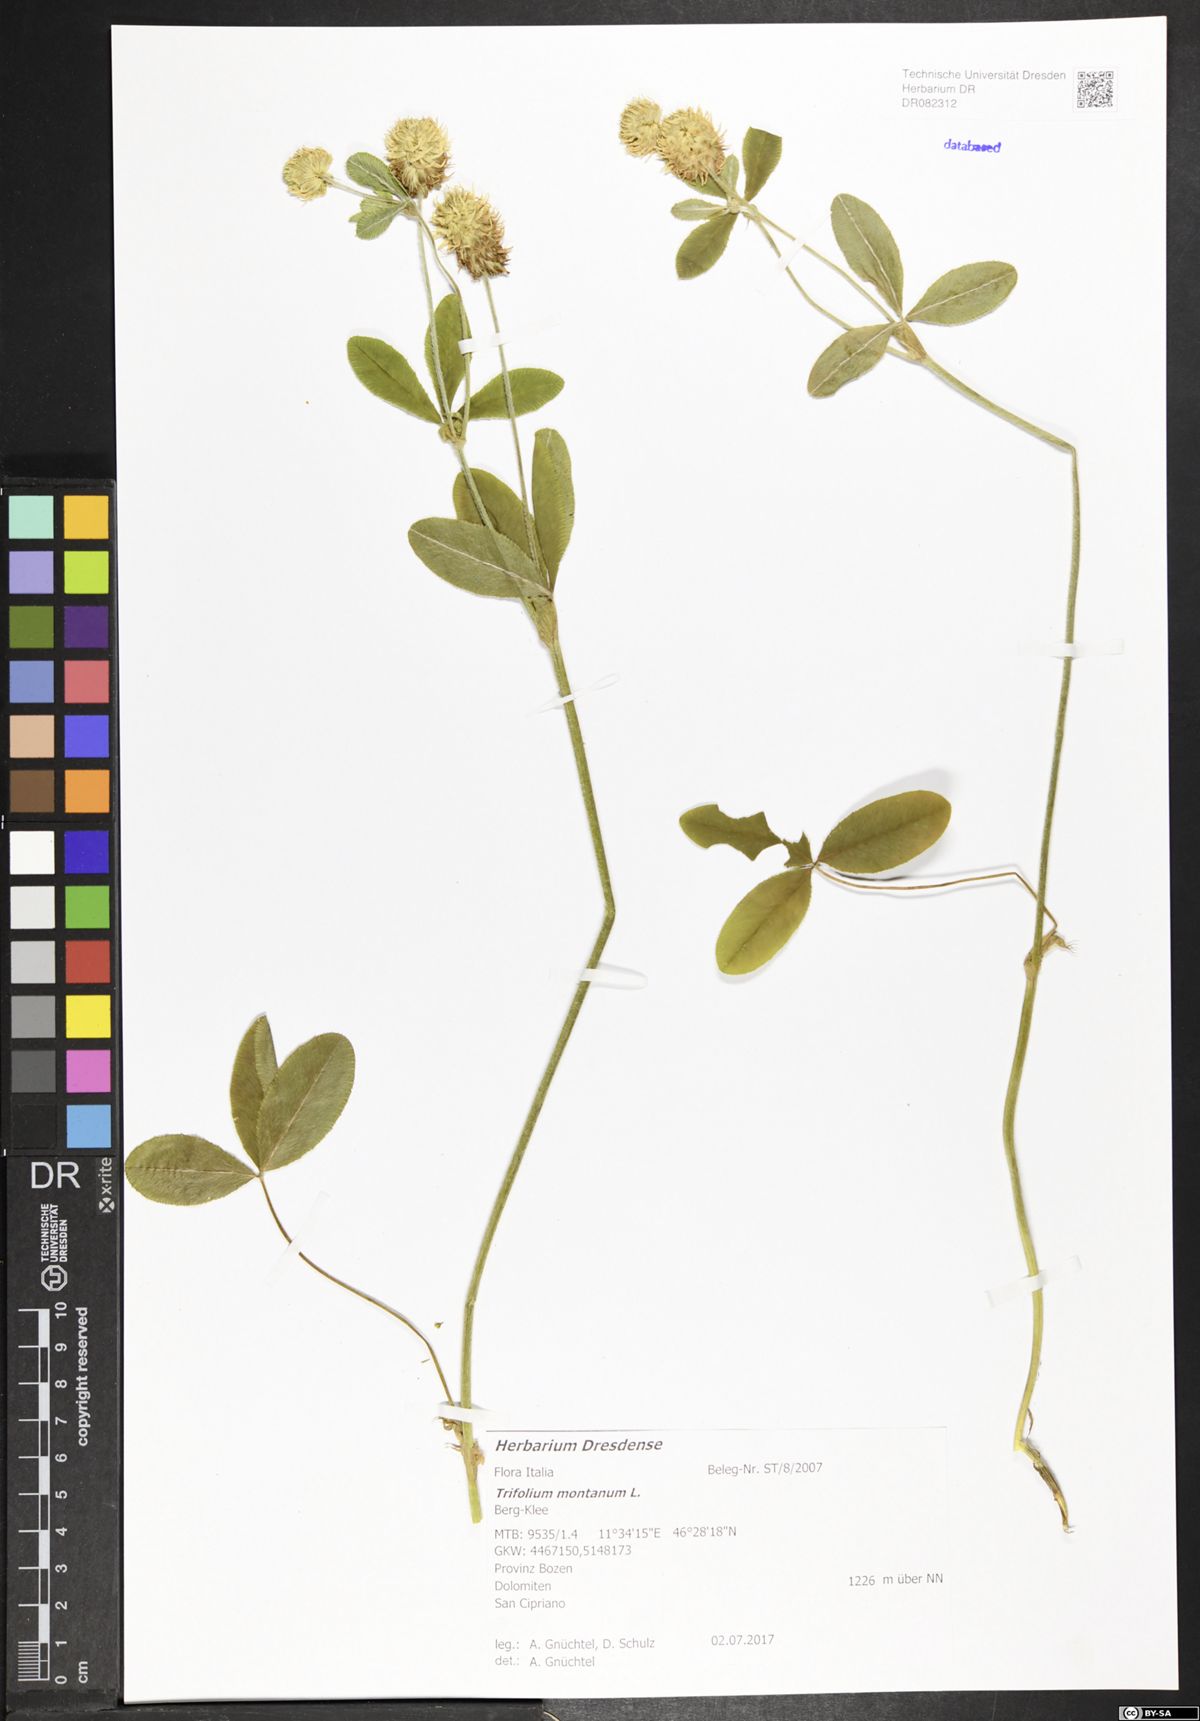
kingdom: Plantae
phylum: Tracheophyta
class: Magnoliopsida
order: Fabales
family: Fabaceae
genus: Trifolium
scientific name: Trifolium montanum
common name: Mountain clover
